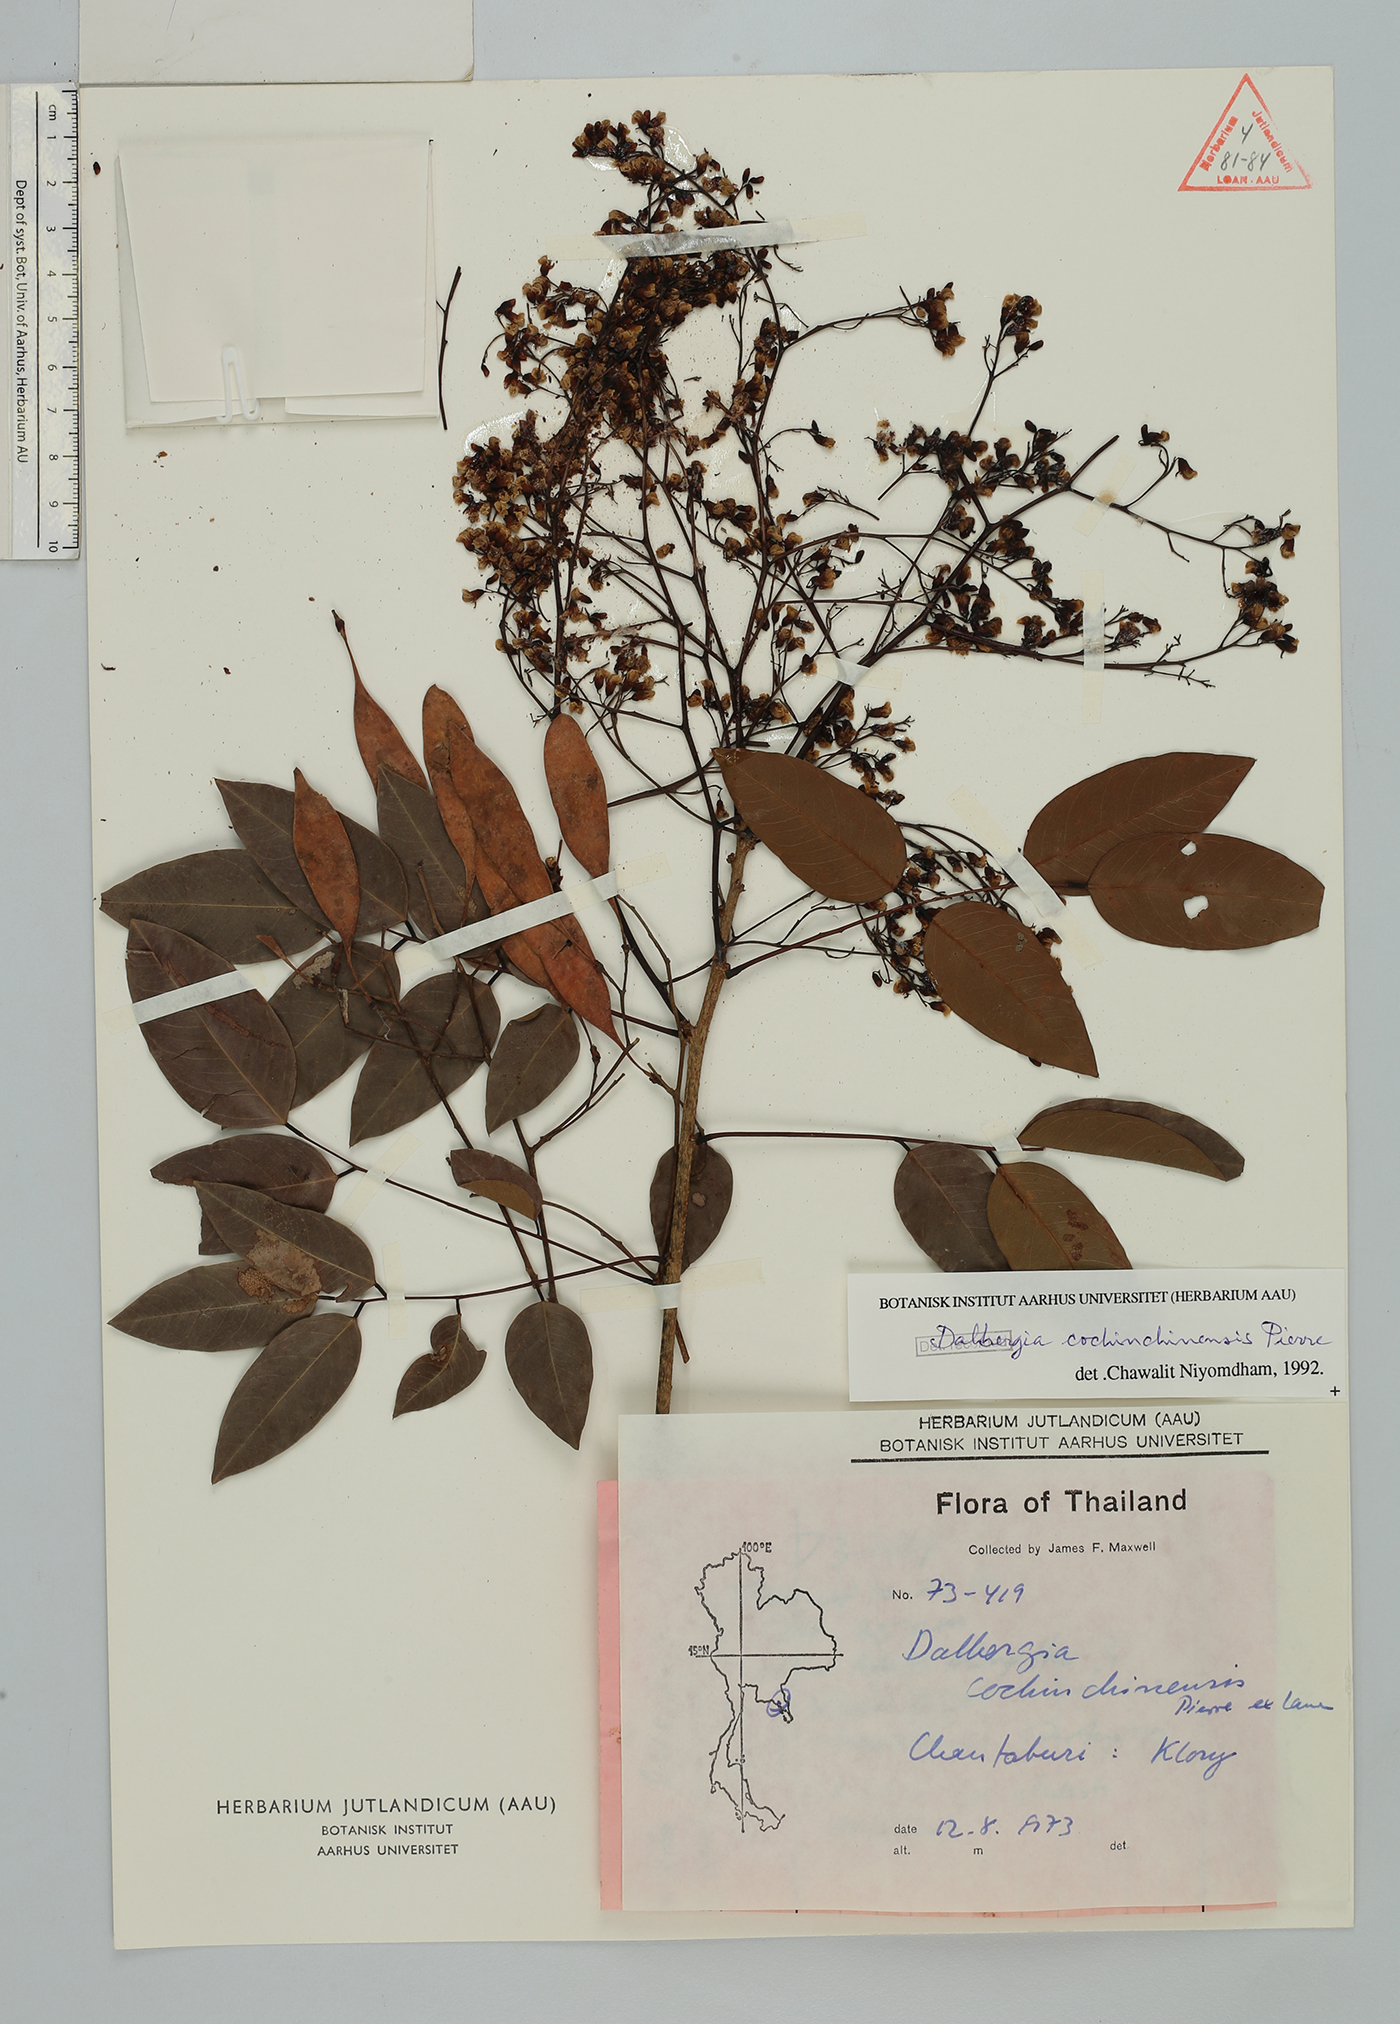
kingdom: Plantae
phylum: Tracheophyta
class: Magnoliopsida
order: Fabales
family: Fabaceae
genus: Dalbergia
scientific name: Dalbergia cochinchinensis
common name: Siamese rosewood
